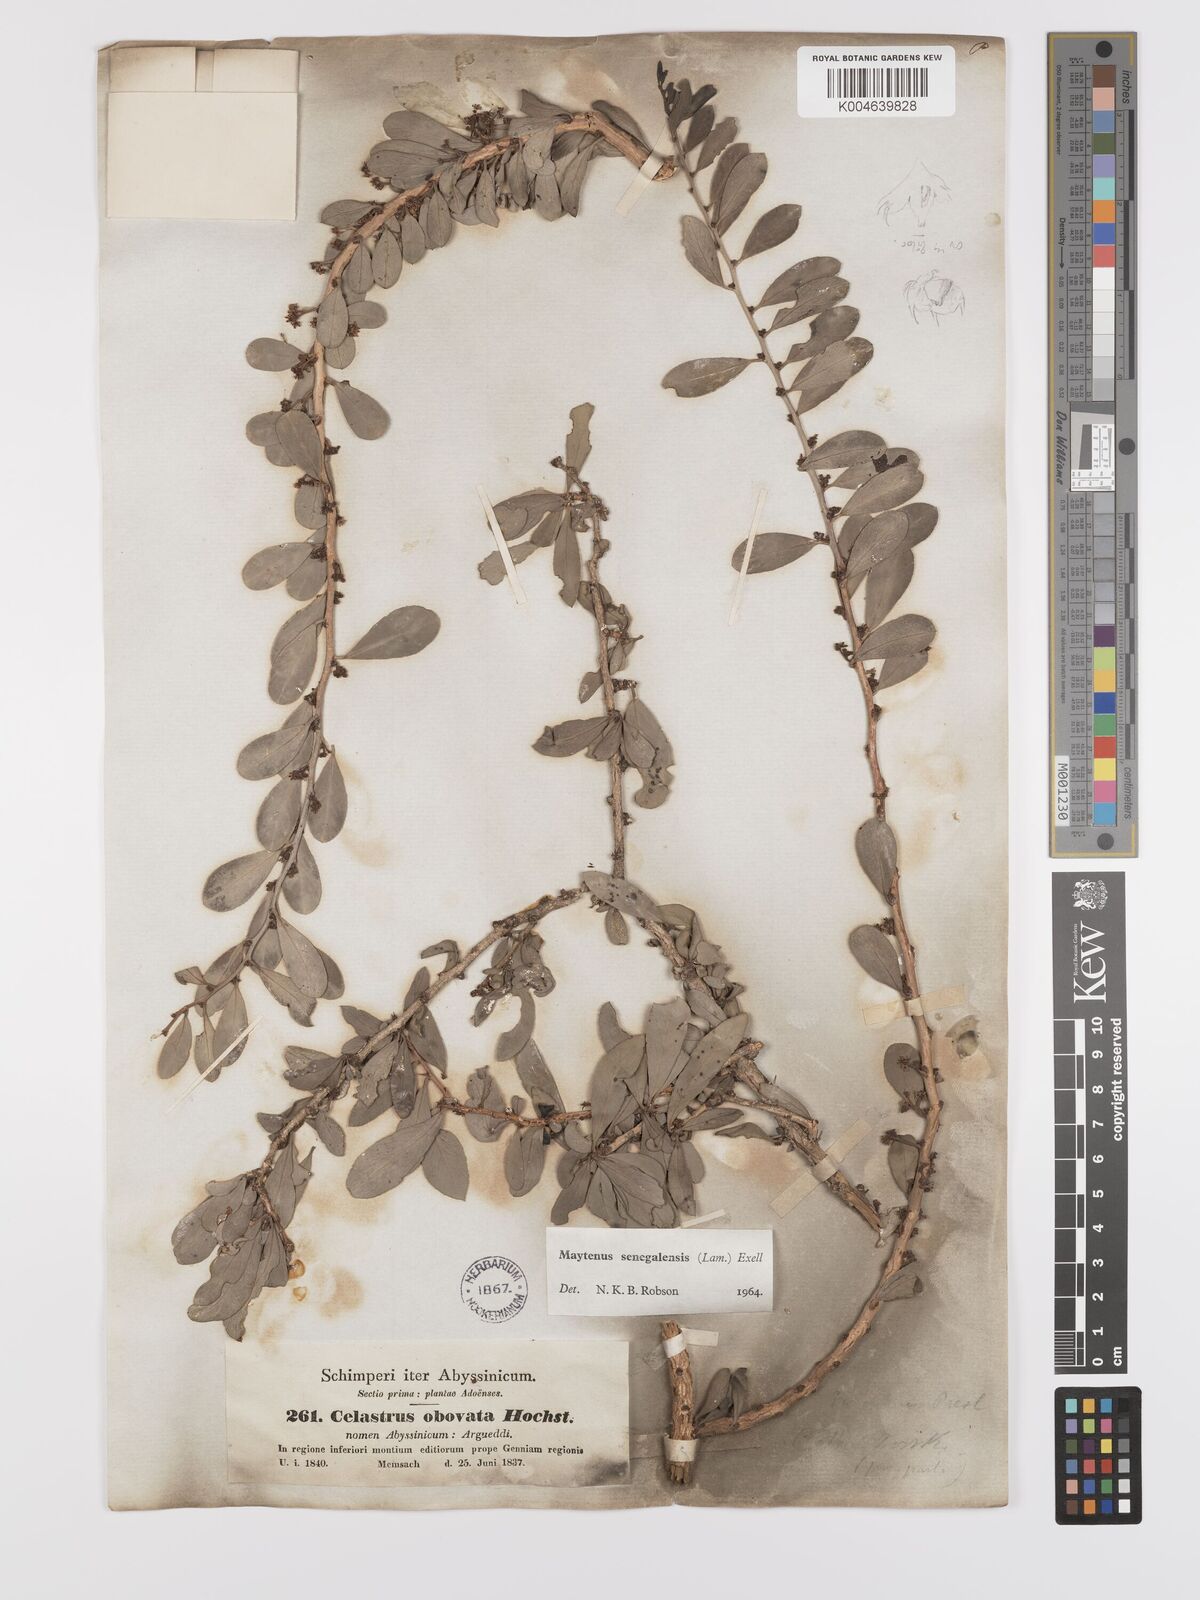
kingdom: Plantae
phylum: Tracheophyta
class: Magnoliopsida
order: Celastrales
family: Celastraceae
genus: Gymnosporia
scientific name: Gymnosporia senegalensis
